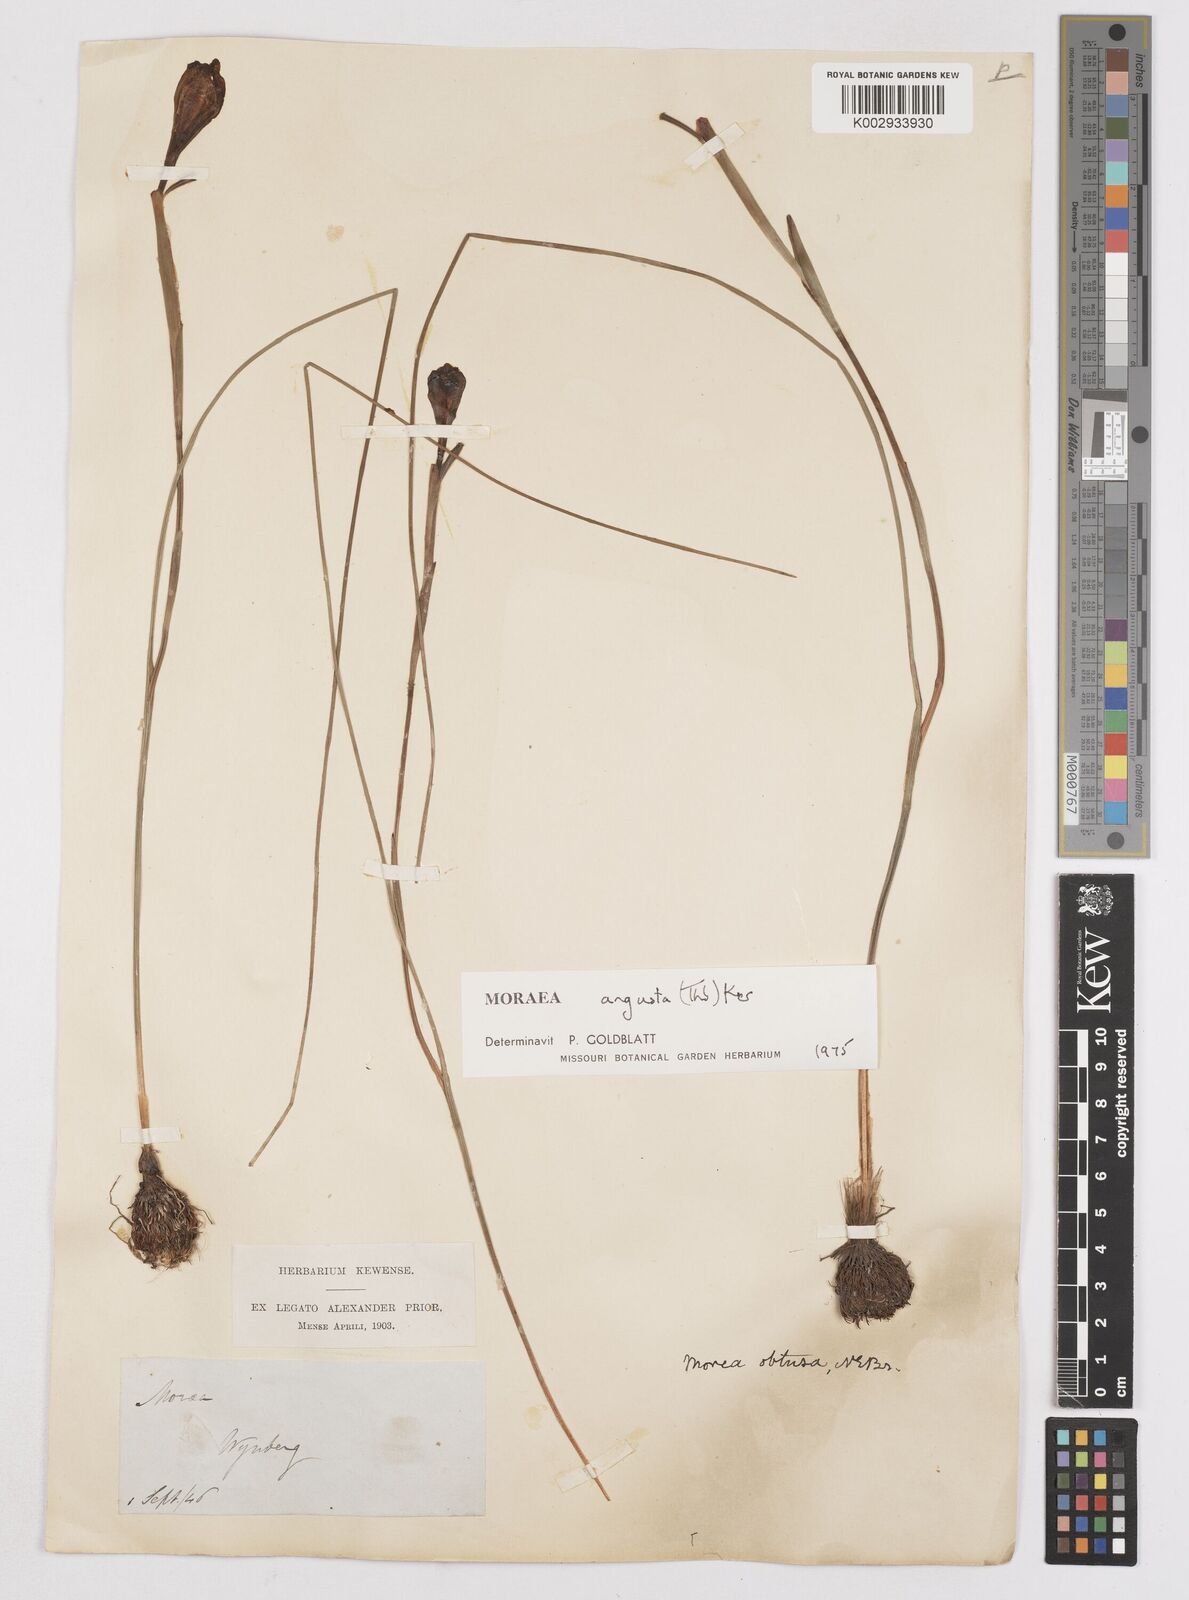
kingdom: Plantae
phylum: Tracheophyta
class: Liliopsida
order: Asparagales
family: Iridaceae
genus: Moraea
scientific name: Moraea angusta
